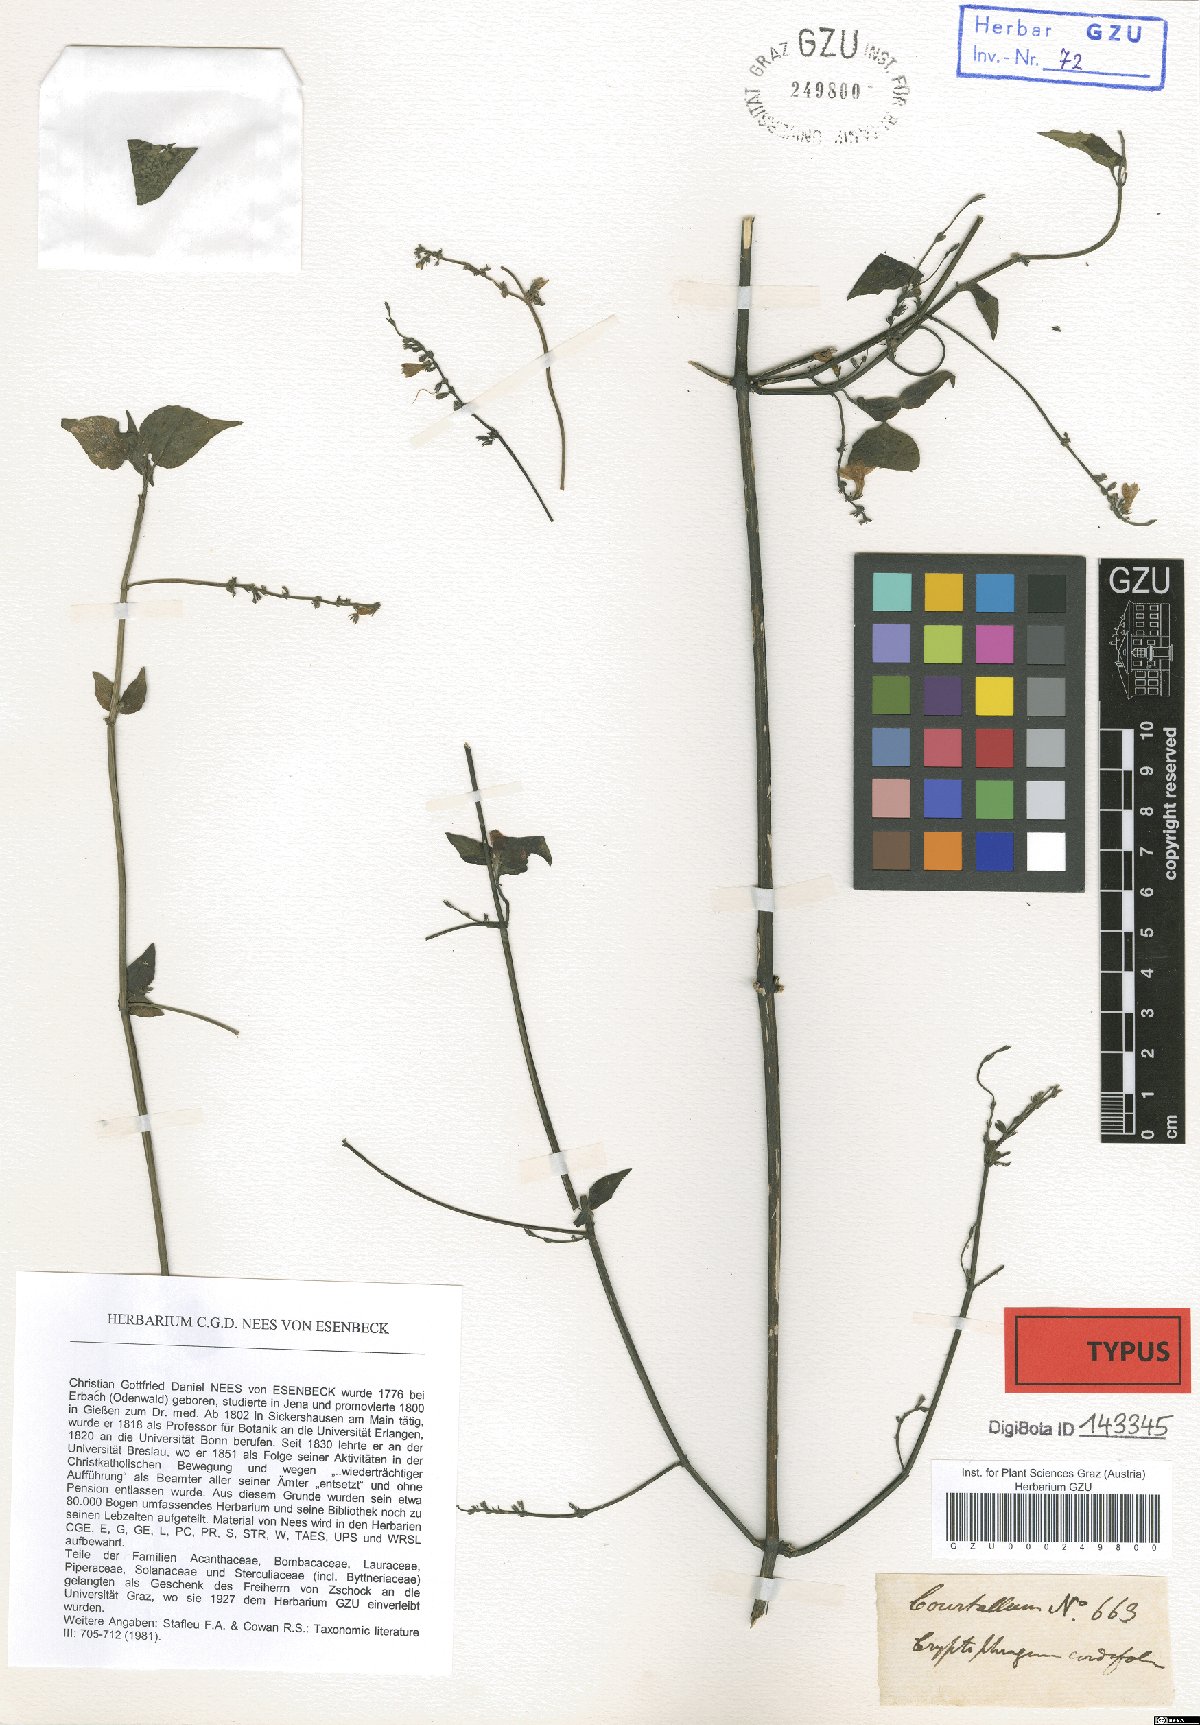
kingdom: Plantae
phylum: Tracheophyta
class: Magnoliopsida
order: Lamiales
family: Acanthaceae
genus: Andrographis
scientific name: Andrographis elongata
